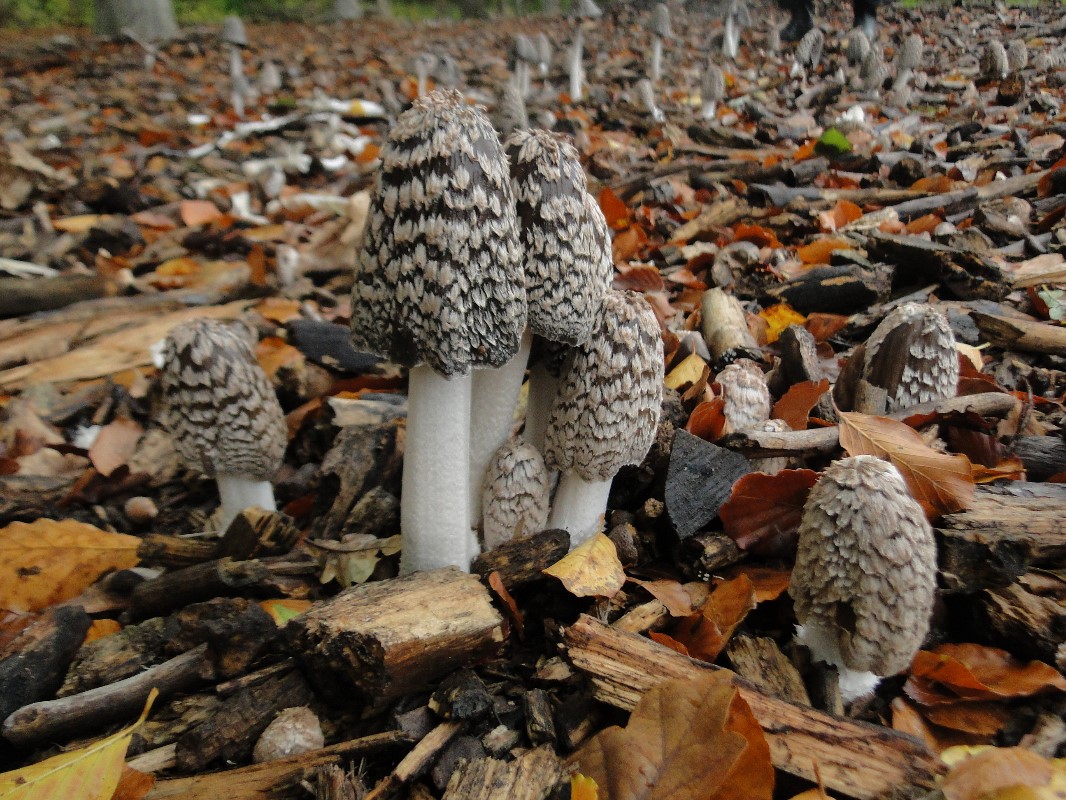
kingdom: Fungi
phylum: Basidiomycota
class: Agaricomycetes
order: Agaricales
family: Psathyrellaceae
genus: Coprinopsis
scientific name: Coprinopsis picacea
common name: skade-blækhat
